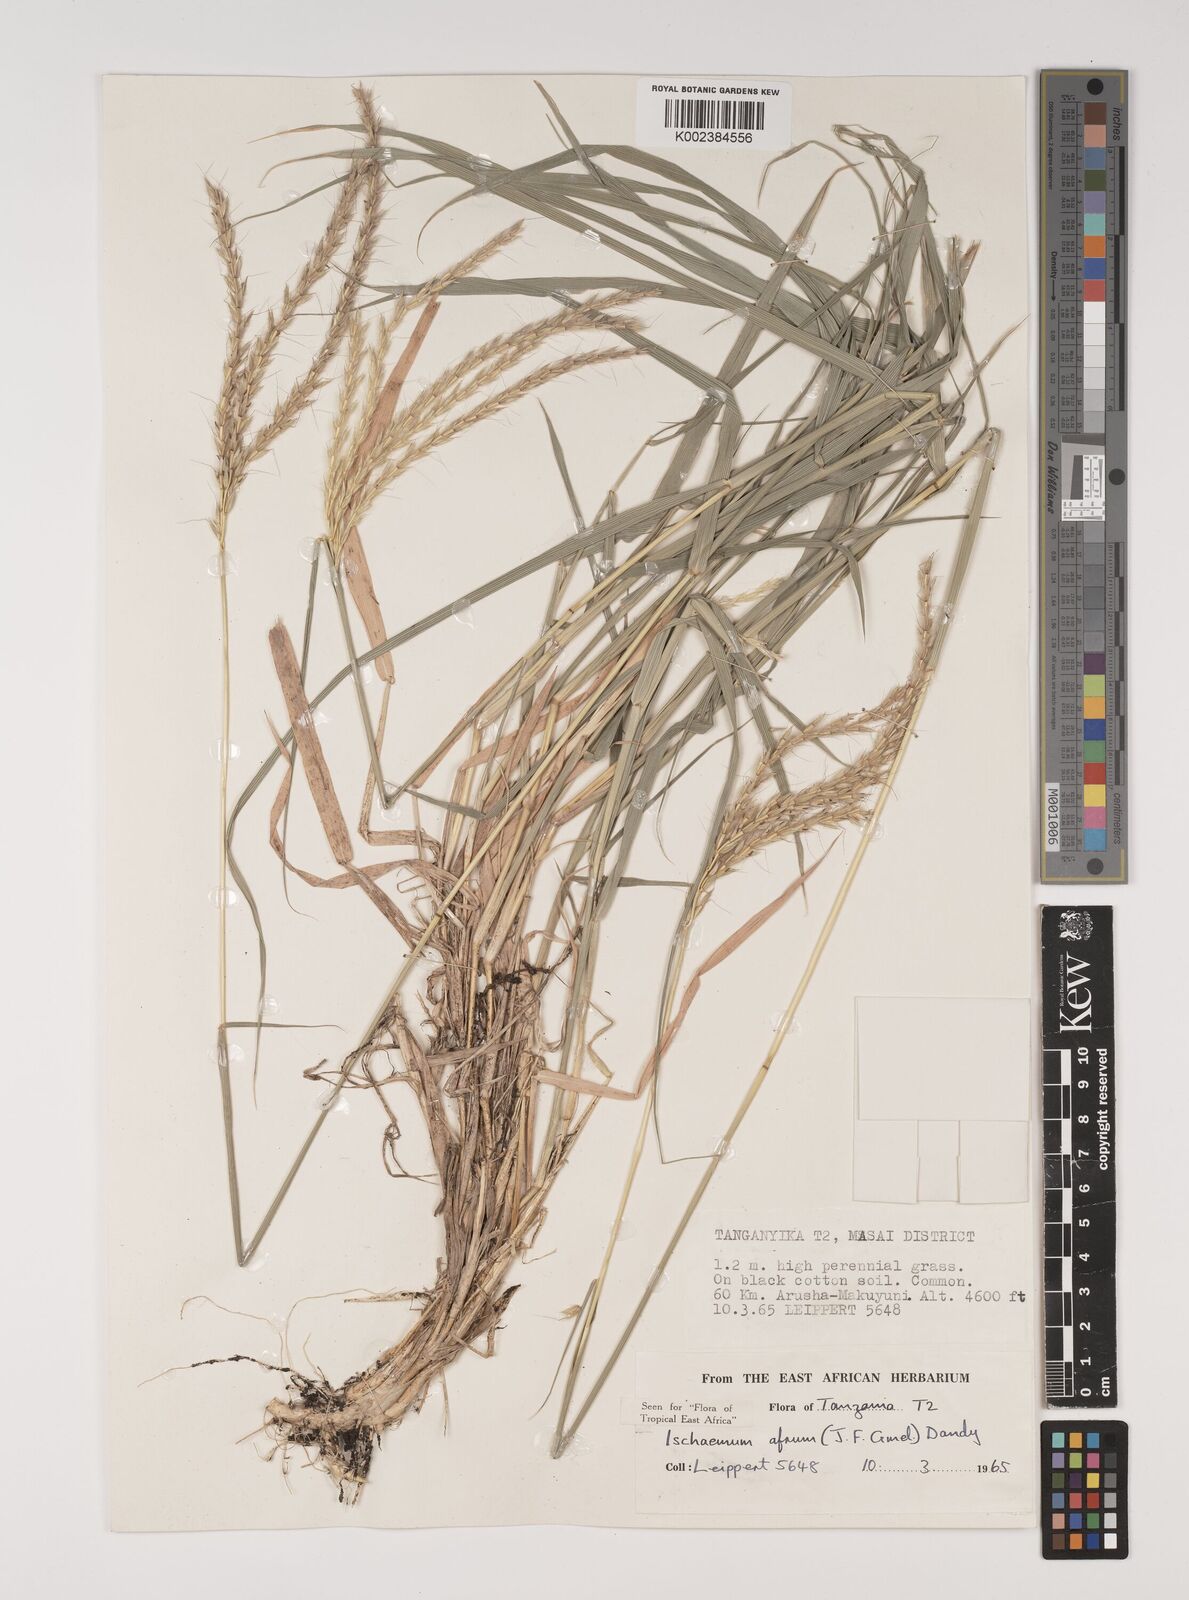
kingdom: Plantae
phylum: Tracheophyta
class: Liliopsida
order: Poales
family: Poaceae
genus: Ischaemum
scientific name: Ischaemum afrum
